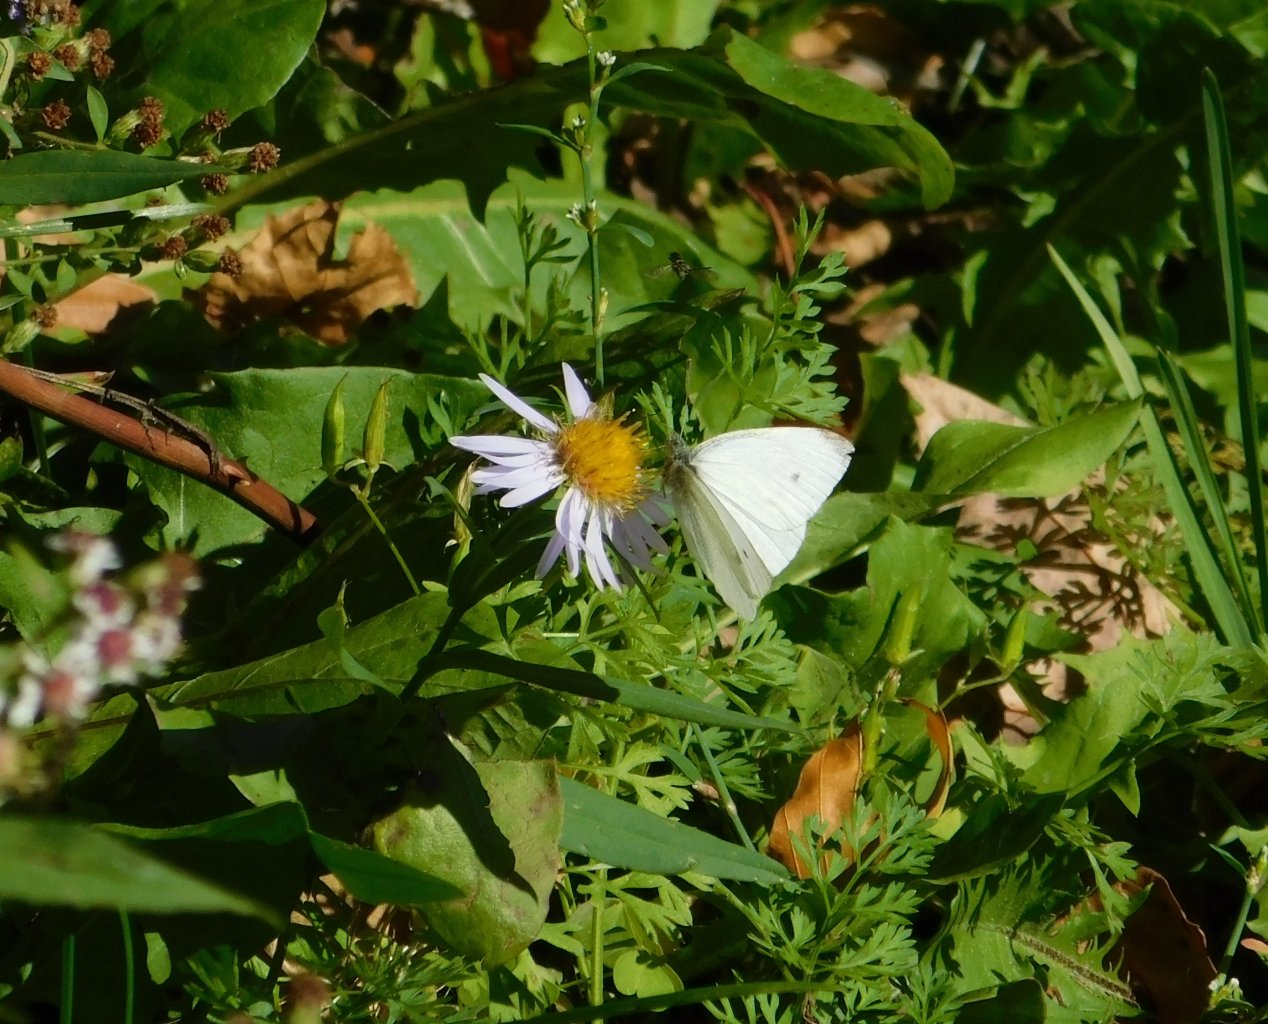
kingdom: Animalia
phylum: Arthropoda
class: Insecta
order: Lepidoptera
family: Pieridae
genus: Pieris
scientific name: Pieris rapae
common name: Cabbage White
